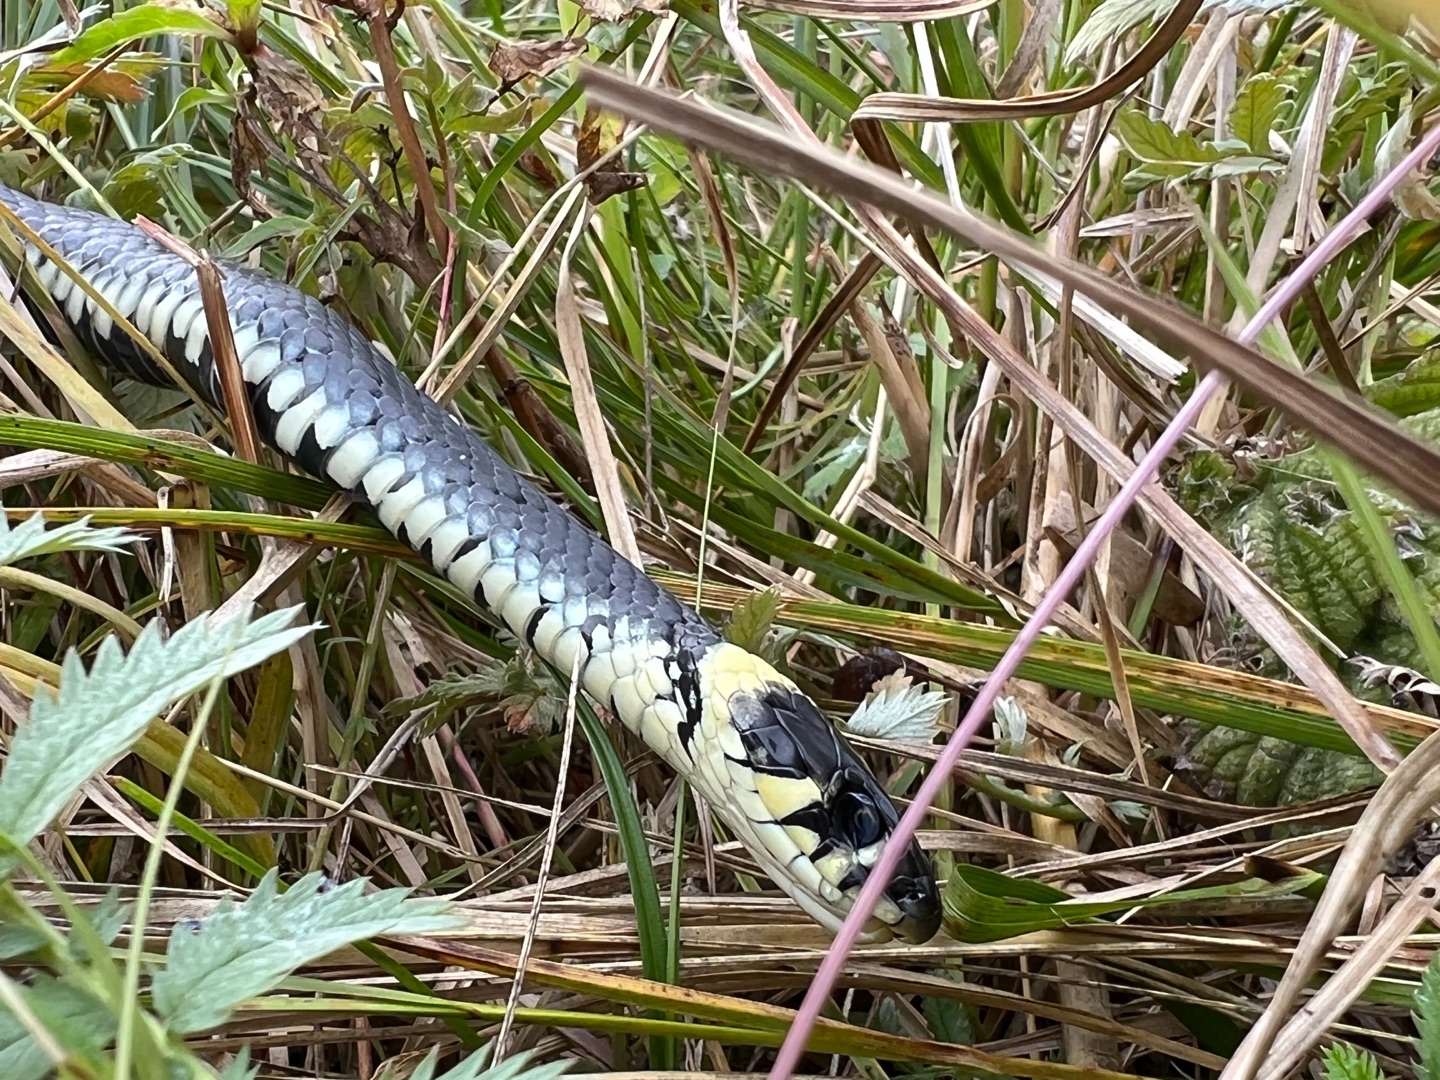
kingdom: Animalia
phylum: Chordata
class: Squamata
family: Colubridae
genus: Natrix
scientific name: Natrix natrix
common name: Snog
